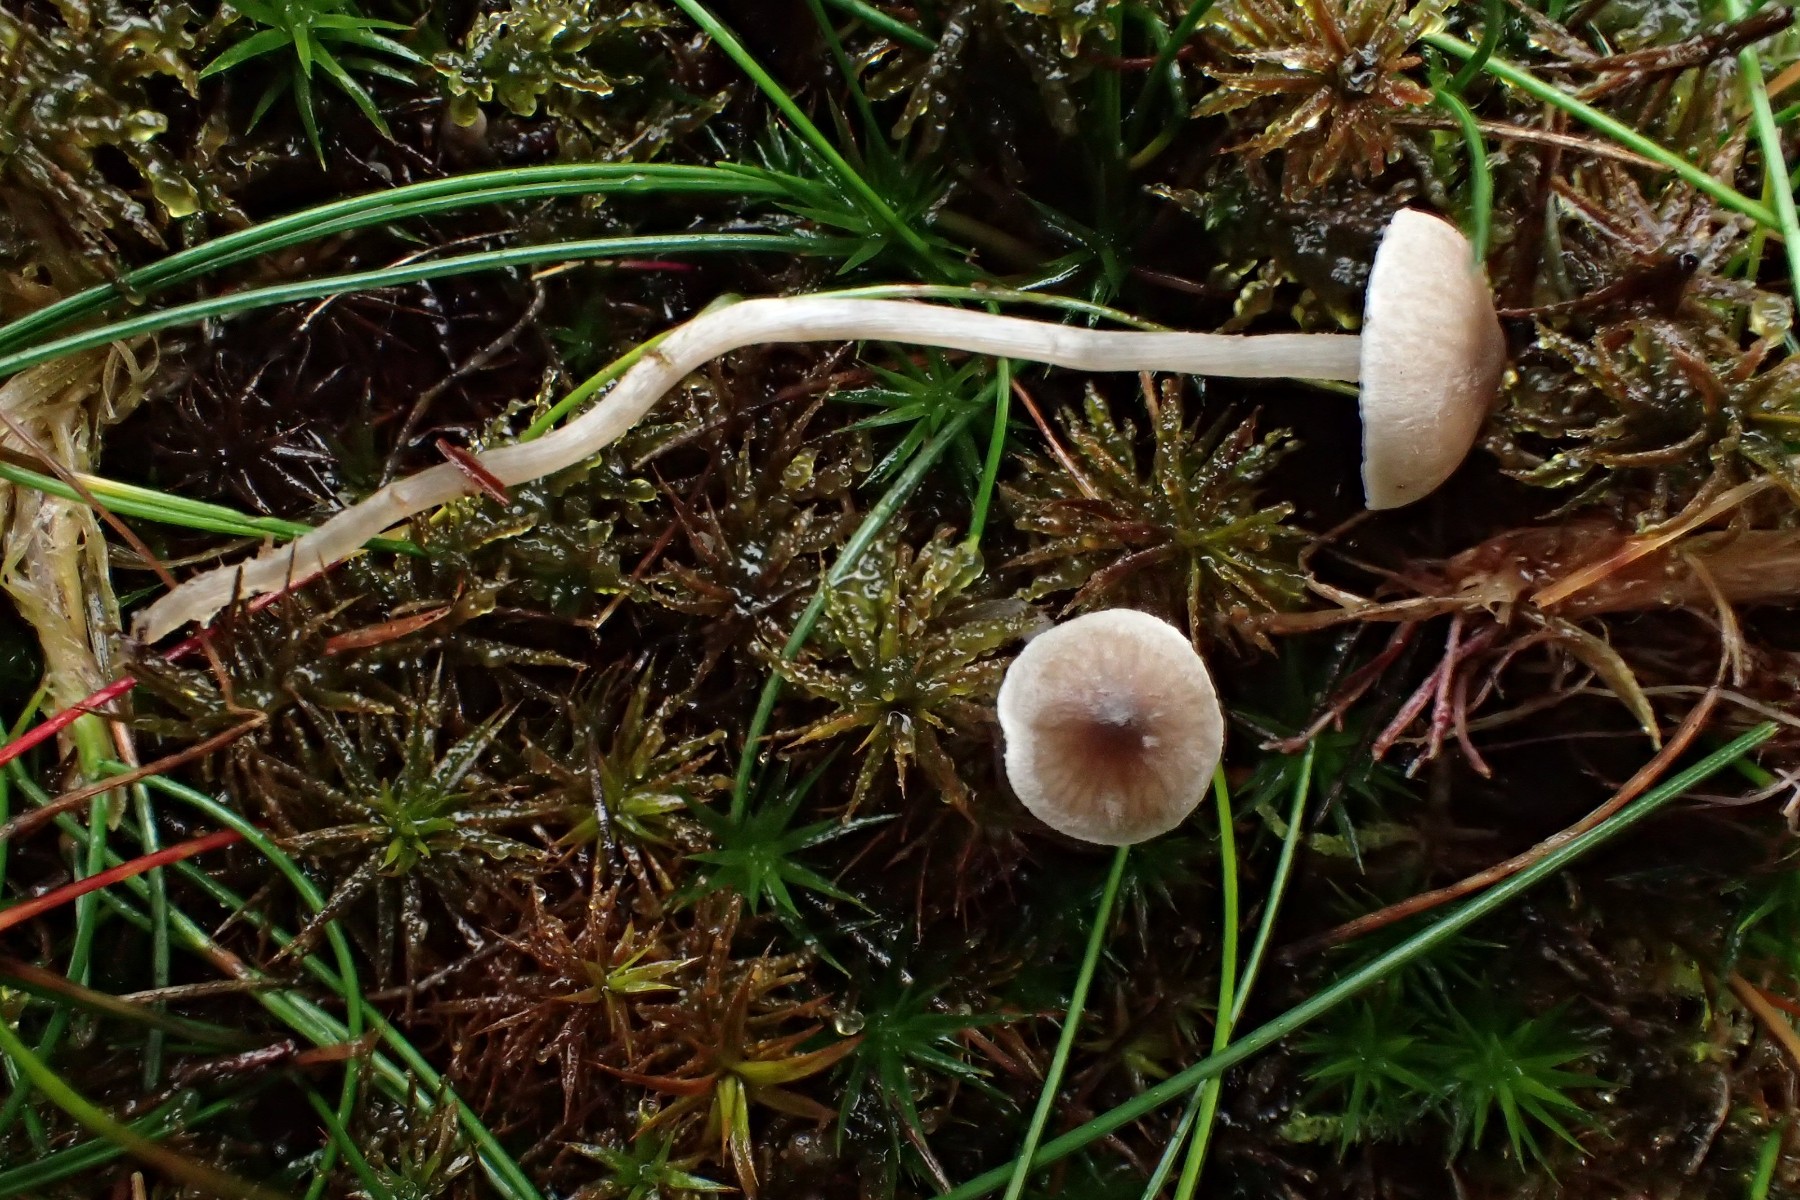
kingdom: Fungi
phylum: Basidiomycota
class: Agaricomycetes
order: Agaricales
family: Lyophyllaceae
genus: Sagaranella
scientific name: Sagaranella tylicolor
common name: kvælstof-gråblad
